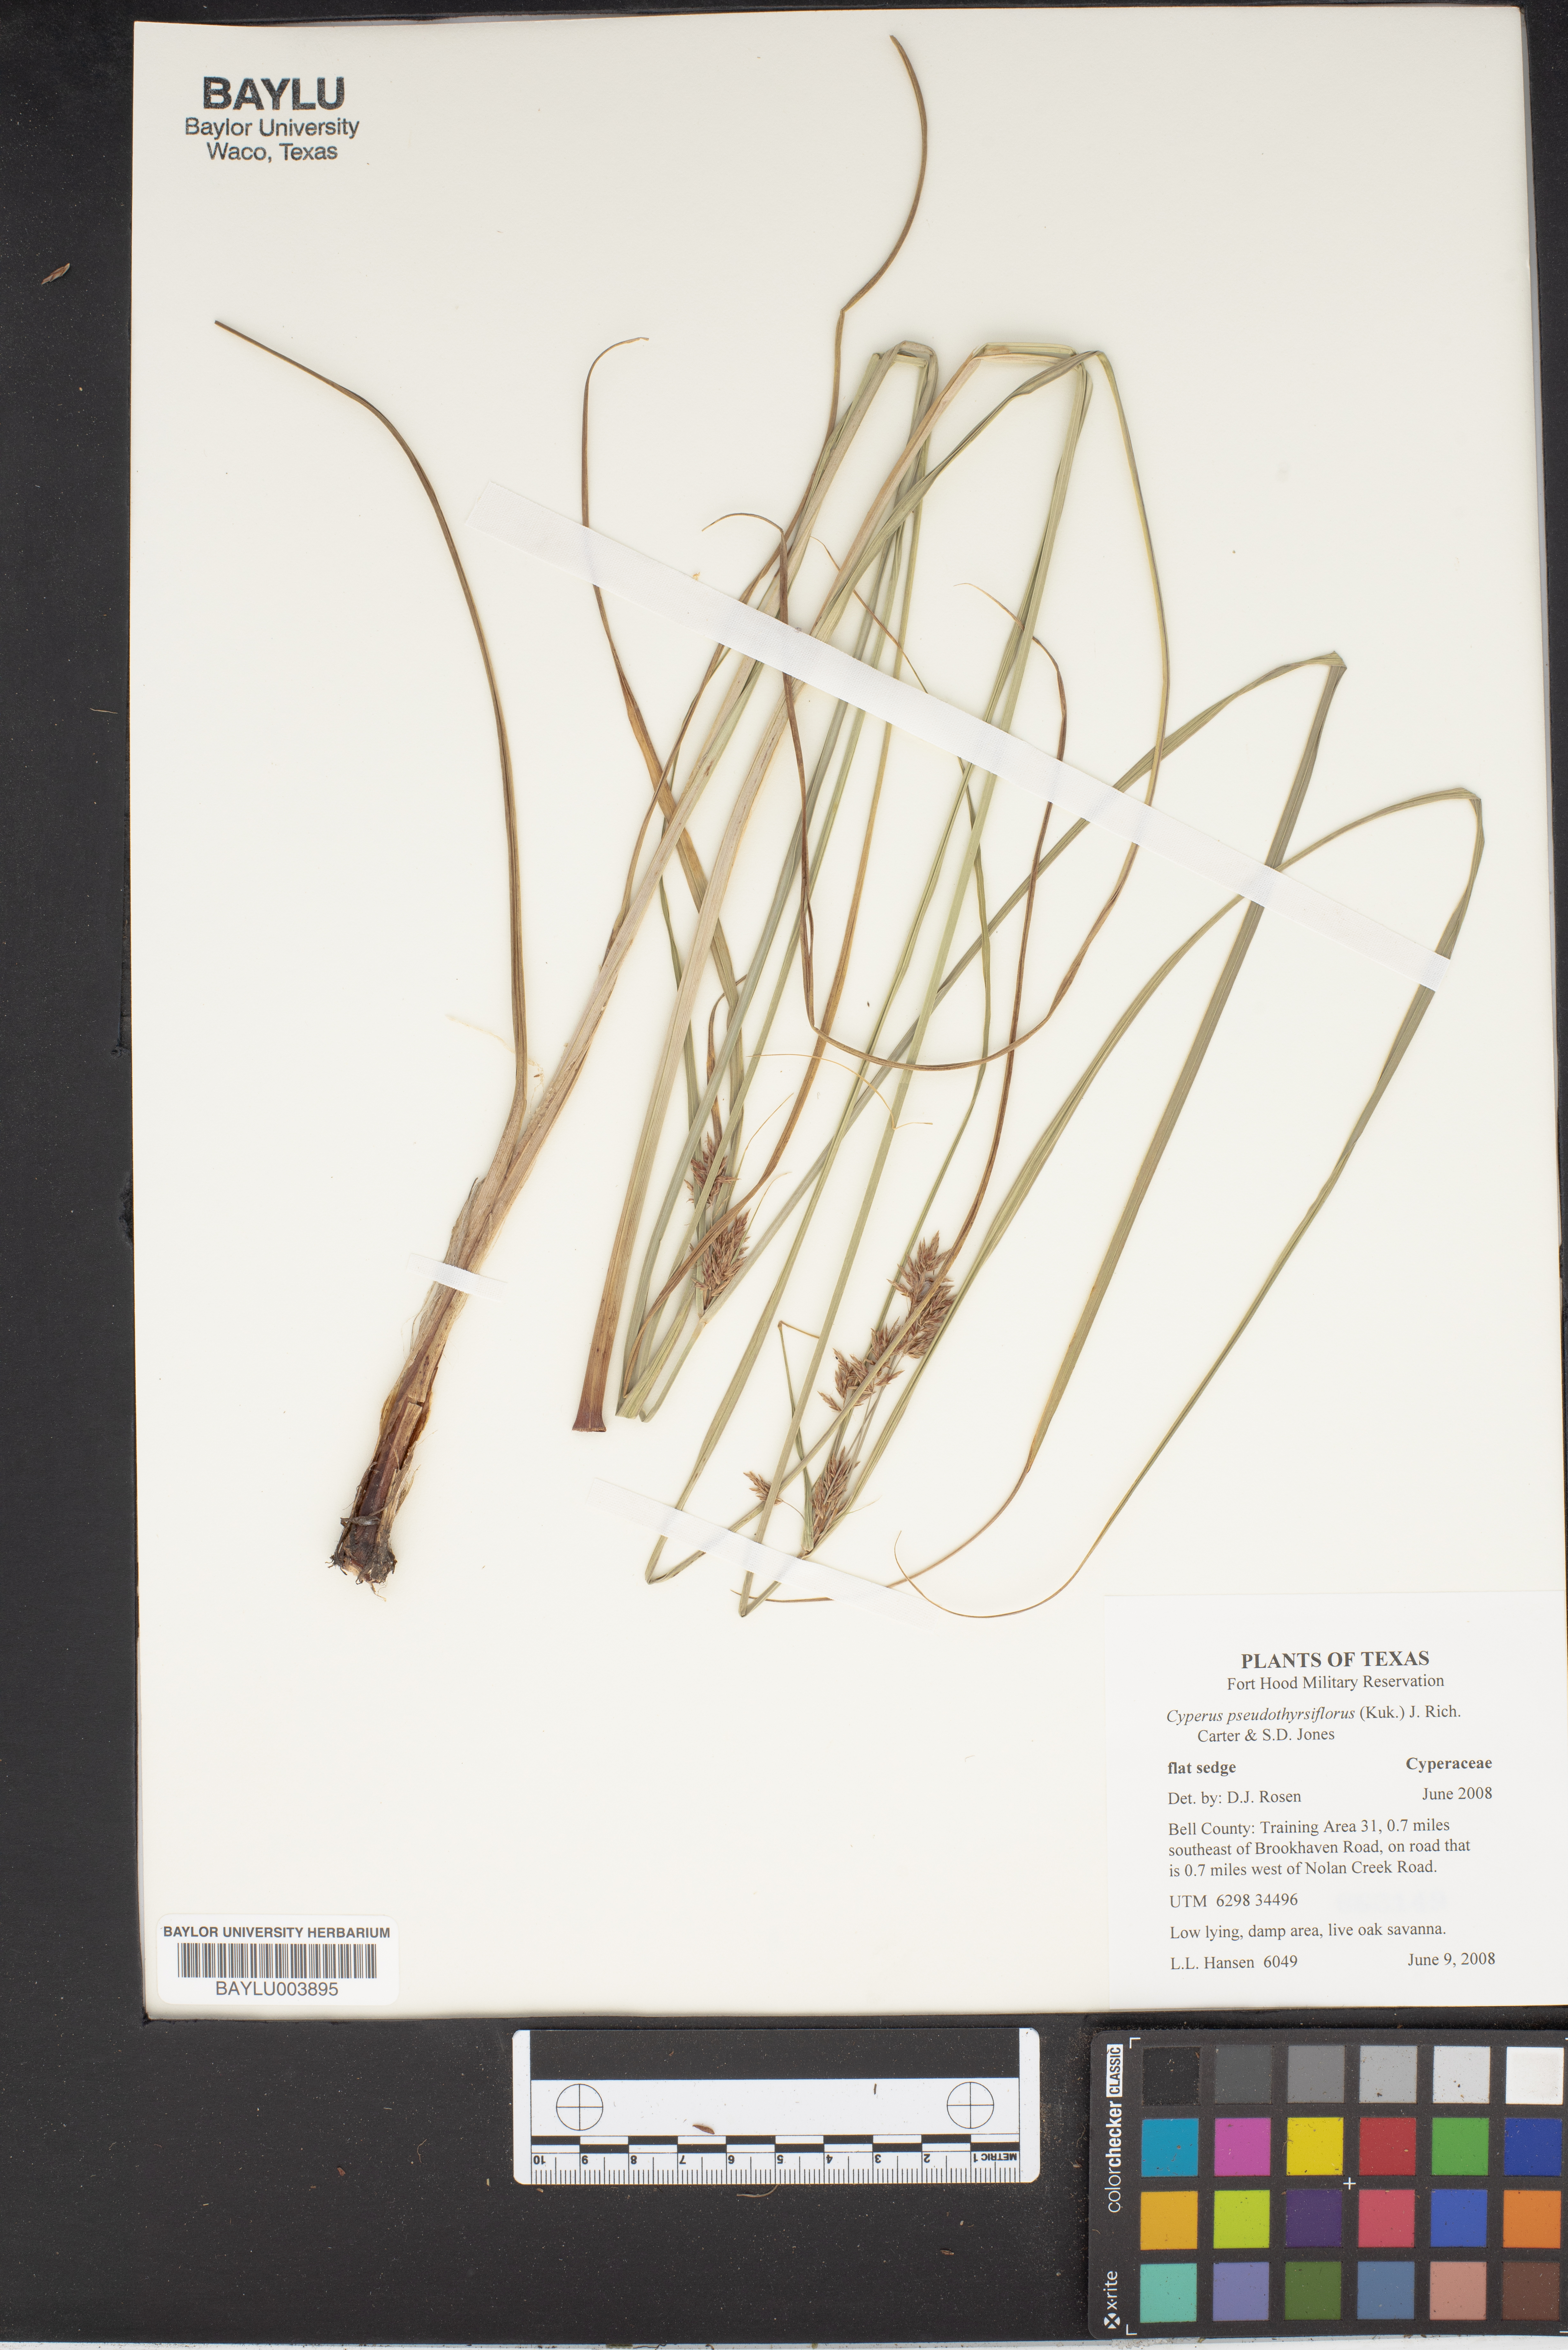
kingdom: Plantae
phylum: Tracheophyta
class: Liliopsida
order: Poales
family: Cyperaceae
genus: Cyperus
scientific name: Cyperus pseudothyrsiflorus
